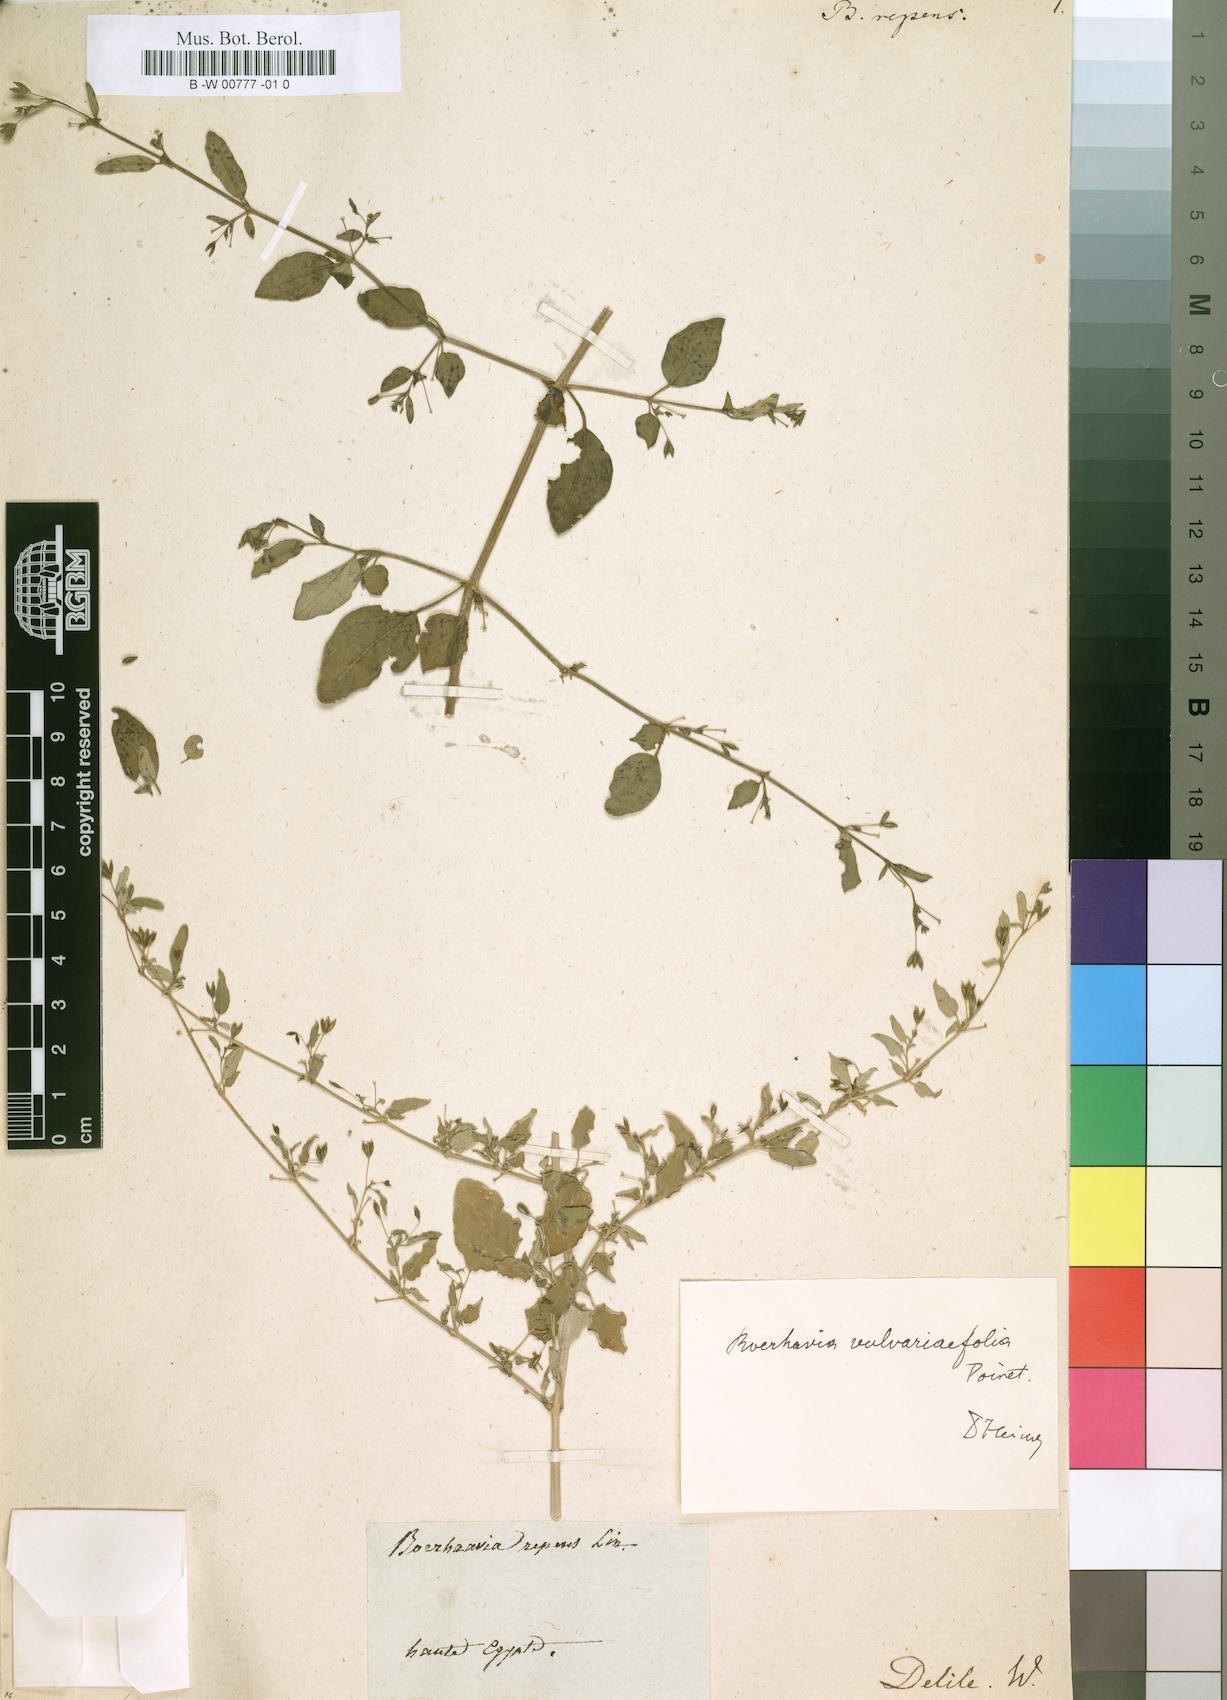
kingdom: Plantae
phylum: Tracheophyta
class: Magnoliopsida
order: Caryophyllales
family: Nyctaginaceae
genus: Boerhavia
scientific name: Boerhavia repens
